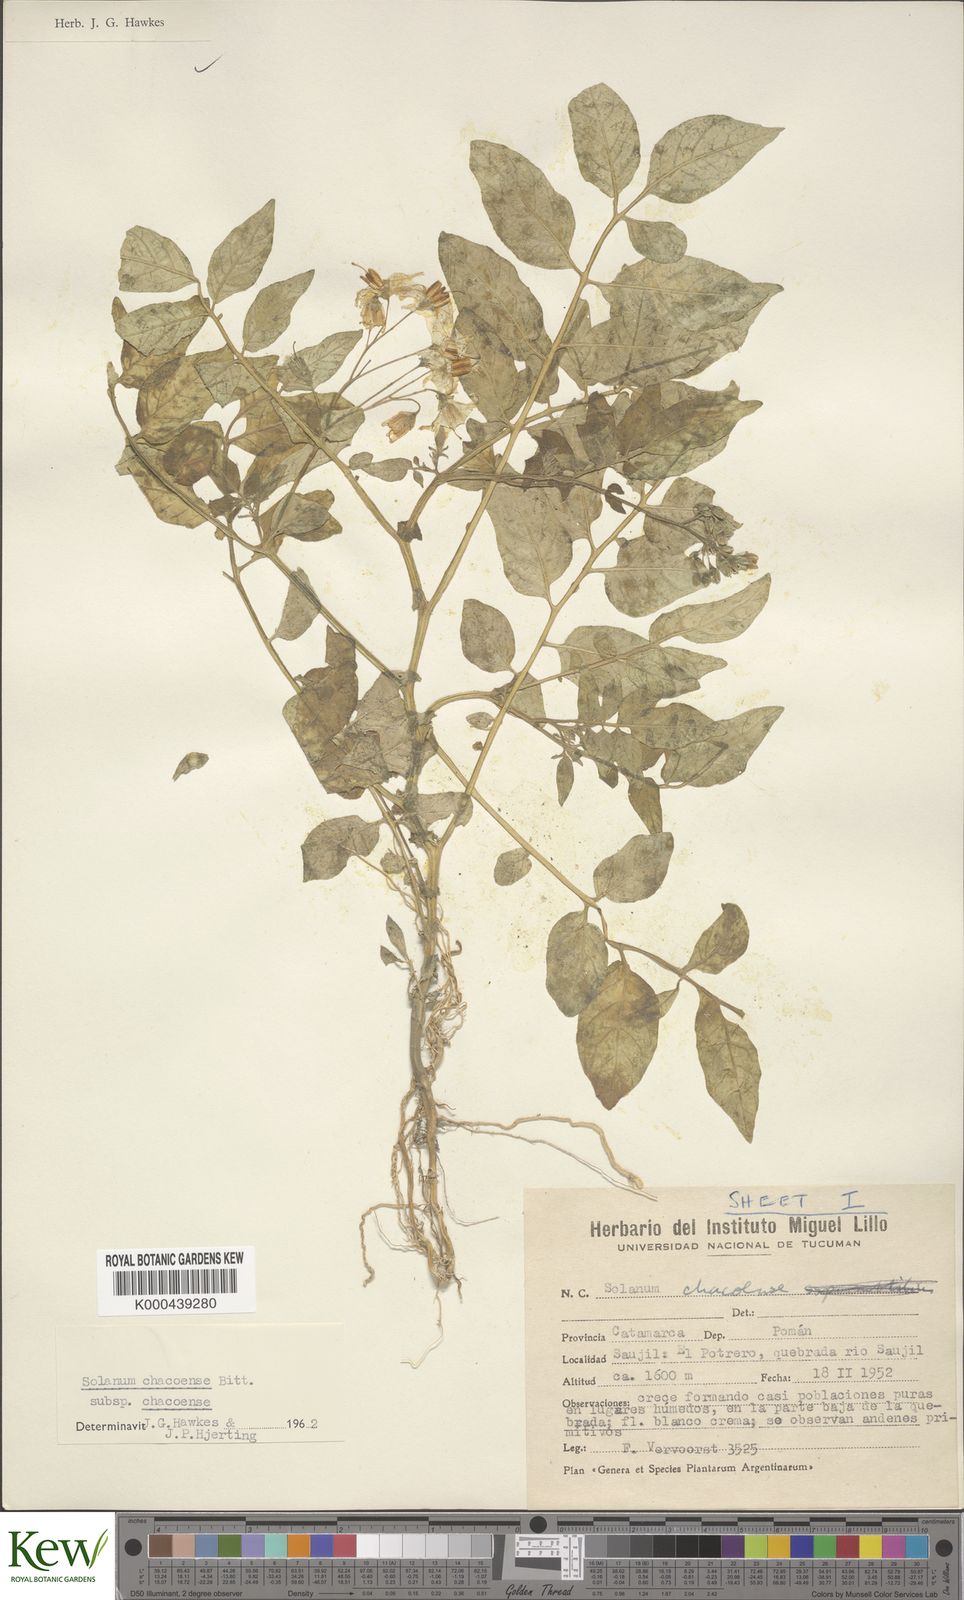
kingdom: Plantae
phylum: Tracheophyta
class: Magnoliopsida
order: Solanales
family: Solanaceae
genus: Solanum
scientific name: Solanum chacoense
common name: Chaco potato
